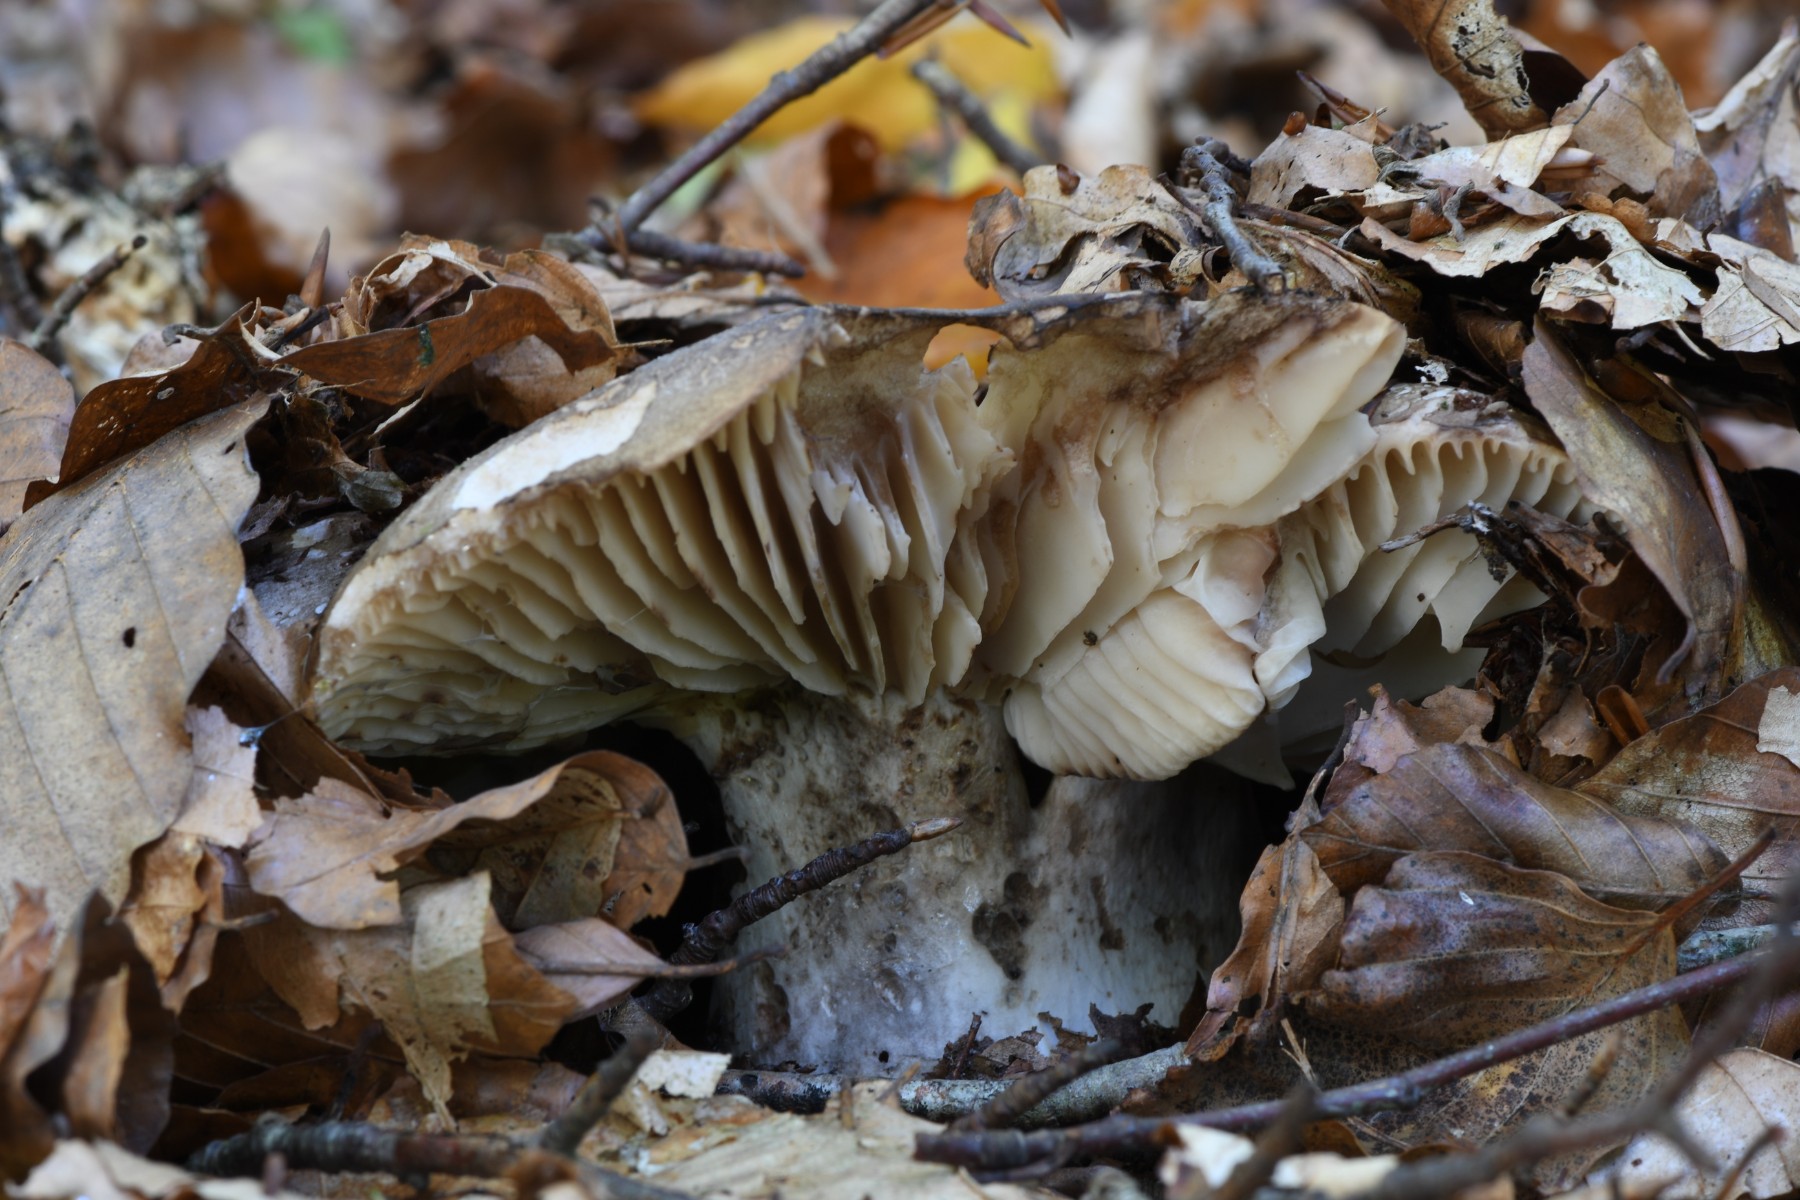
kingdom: Fungi
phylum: Basidiomycota
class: Agaricomycetes
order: Russulales
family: Russulaceae
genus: Russula
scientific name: Russula adusta
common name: sværtende skørhat
